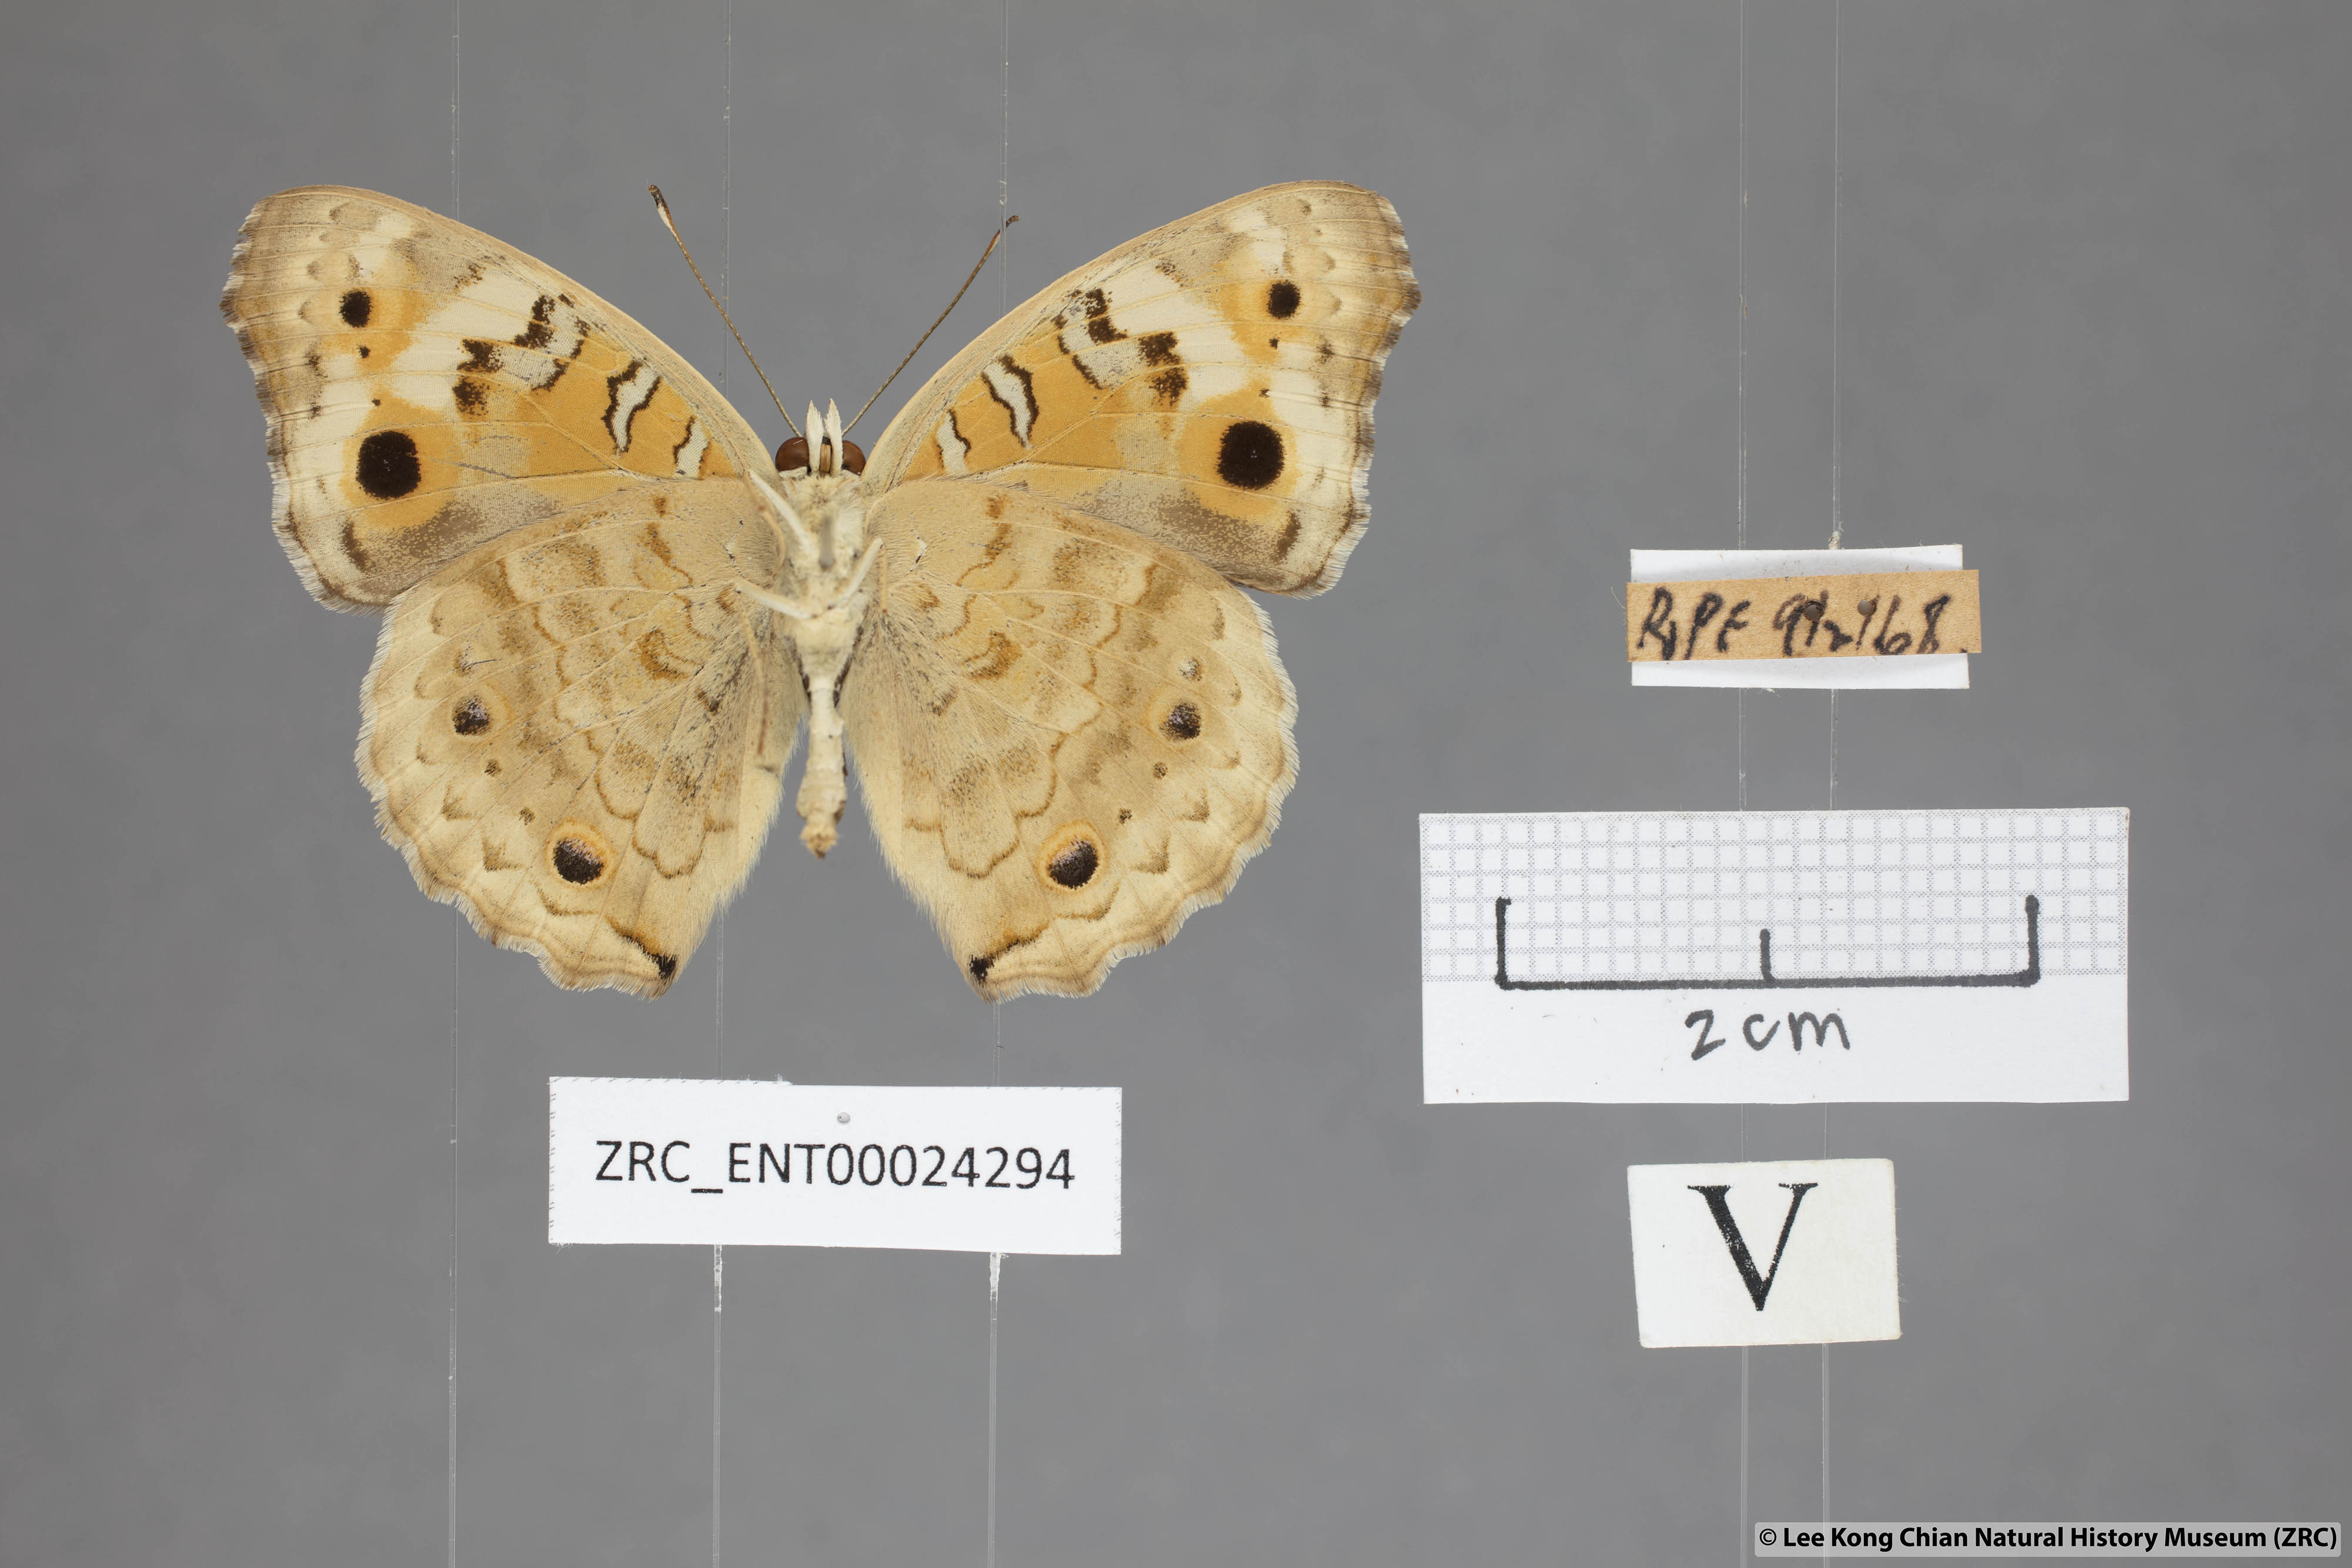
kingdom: Animalia
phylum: Arthropoda
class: Insecta
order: Lepidoptera
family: Nymphalidae
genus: Junonia
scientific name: Junonia orithya
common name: Blue pansy
